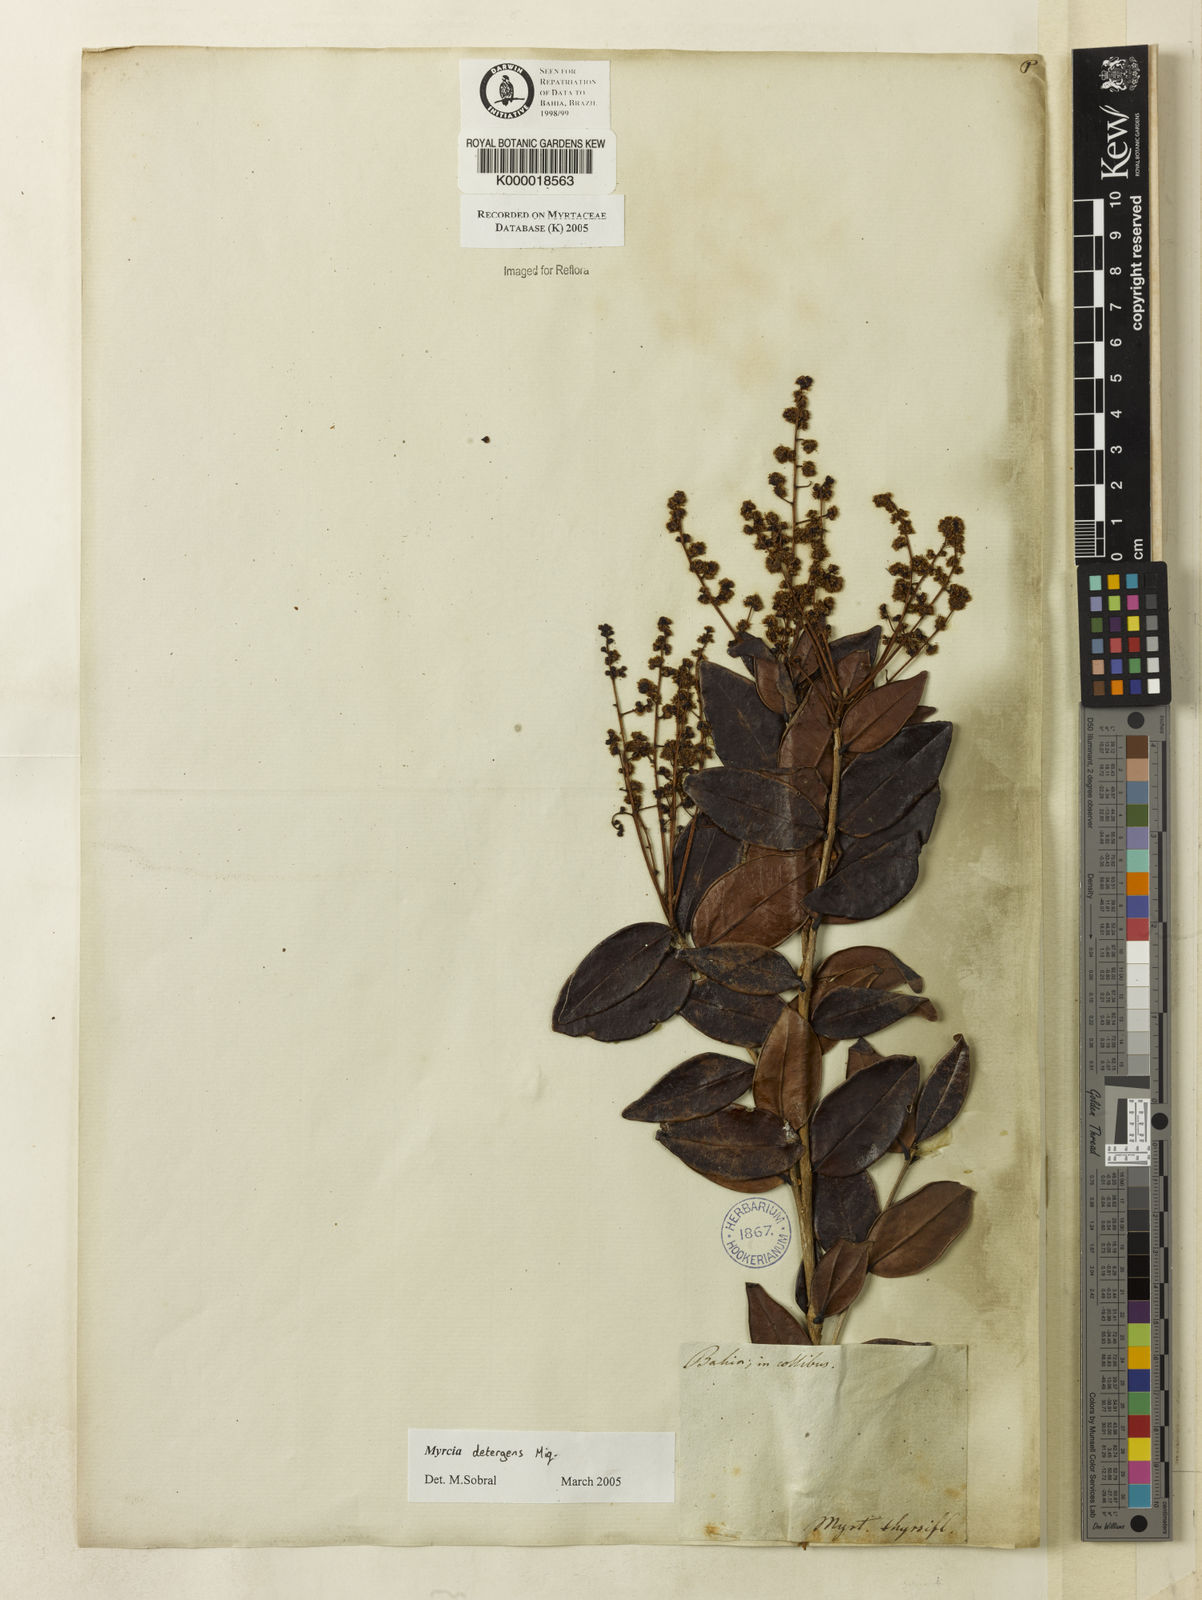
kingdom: Plantae
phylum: Tracheophyta
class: Magnoliopsida
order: Myrtales
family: Myrtaceae
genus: Myrcia
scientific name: Myrcia
